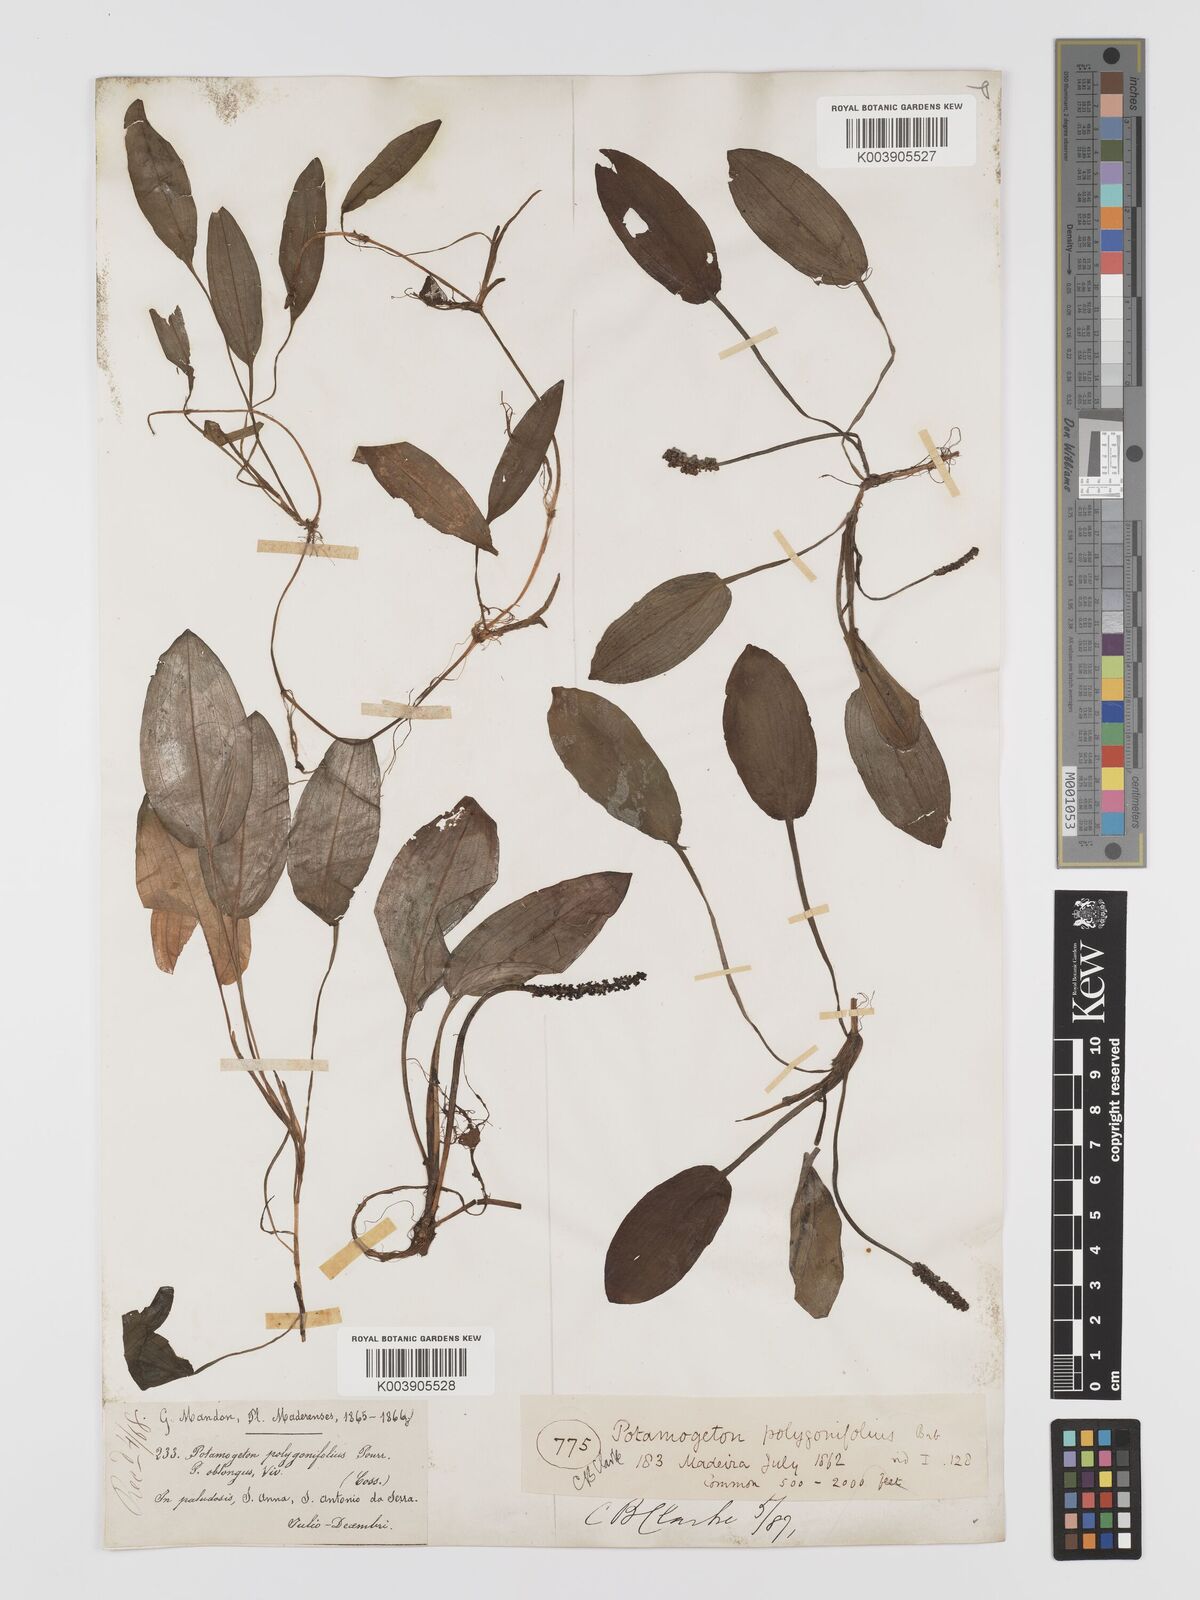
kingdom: Plantae
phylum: Tracheophyta
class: Liliopsida
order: Alismatales
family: Potamogetonaceae
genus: Potamogeton
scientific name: Potamogeton polygonifolius
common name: Bog pondweed
